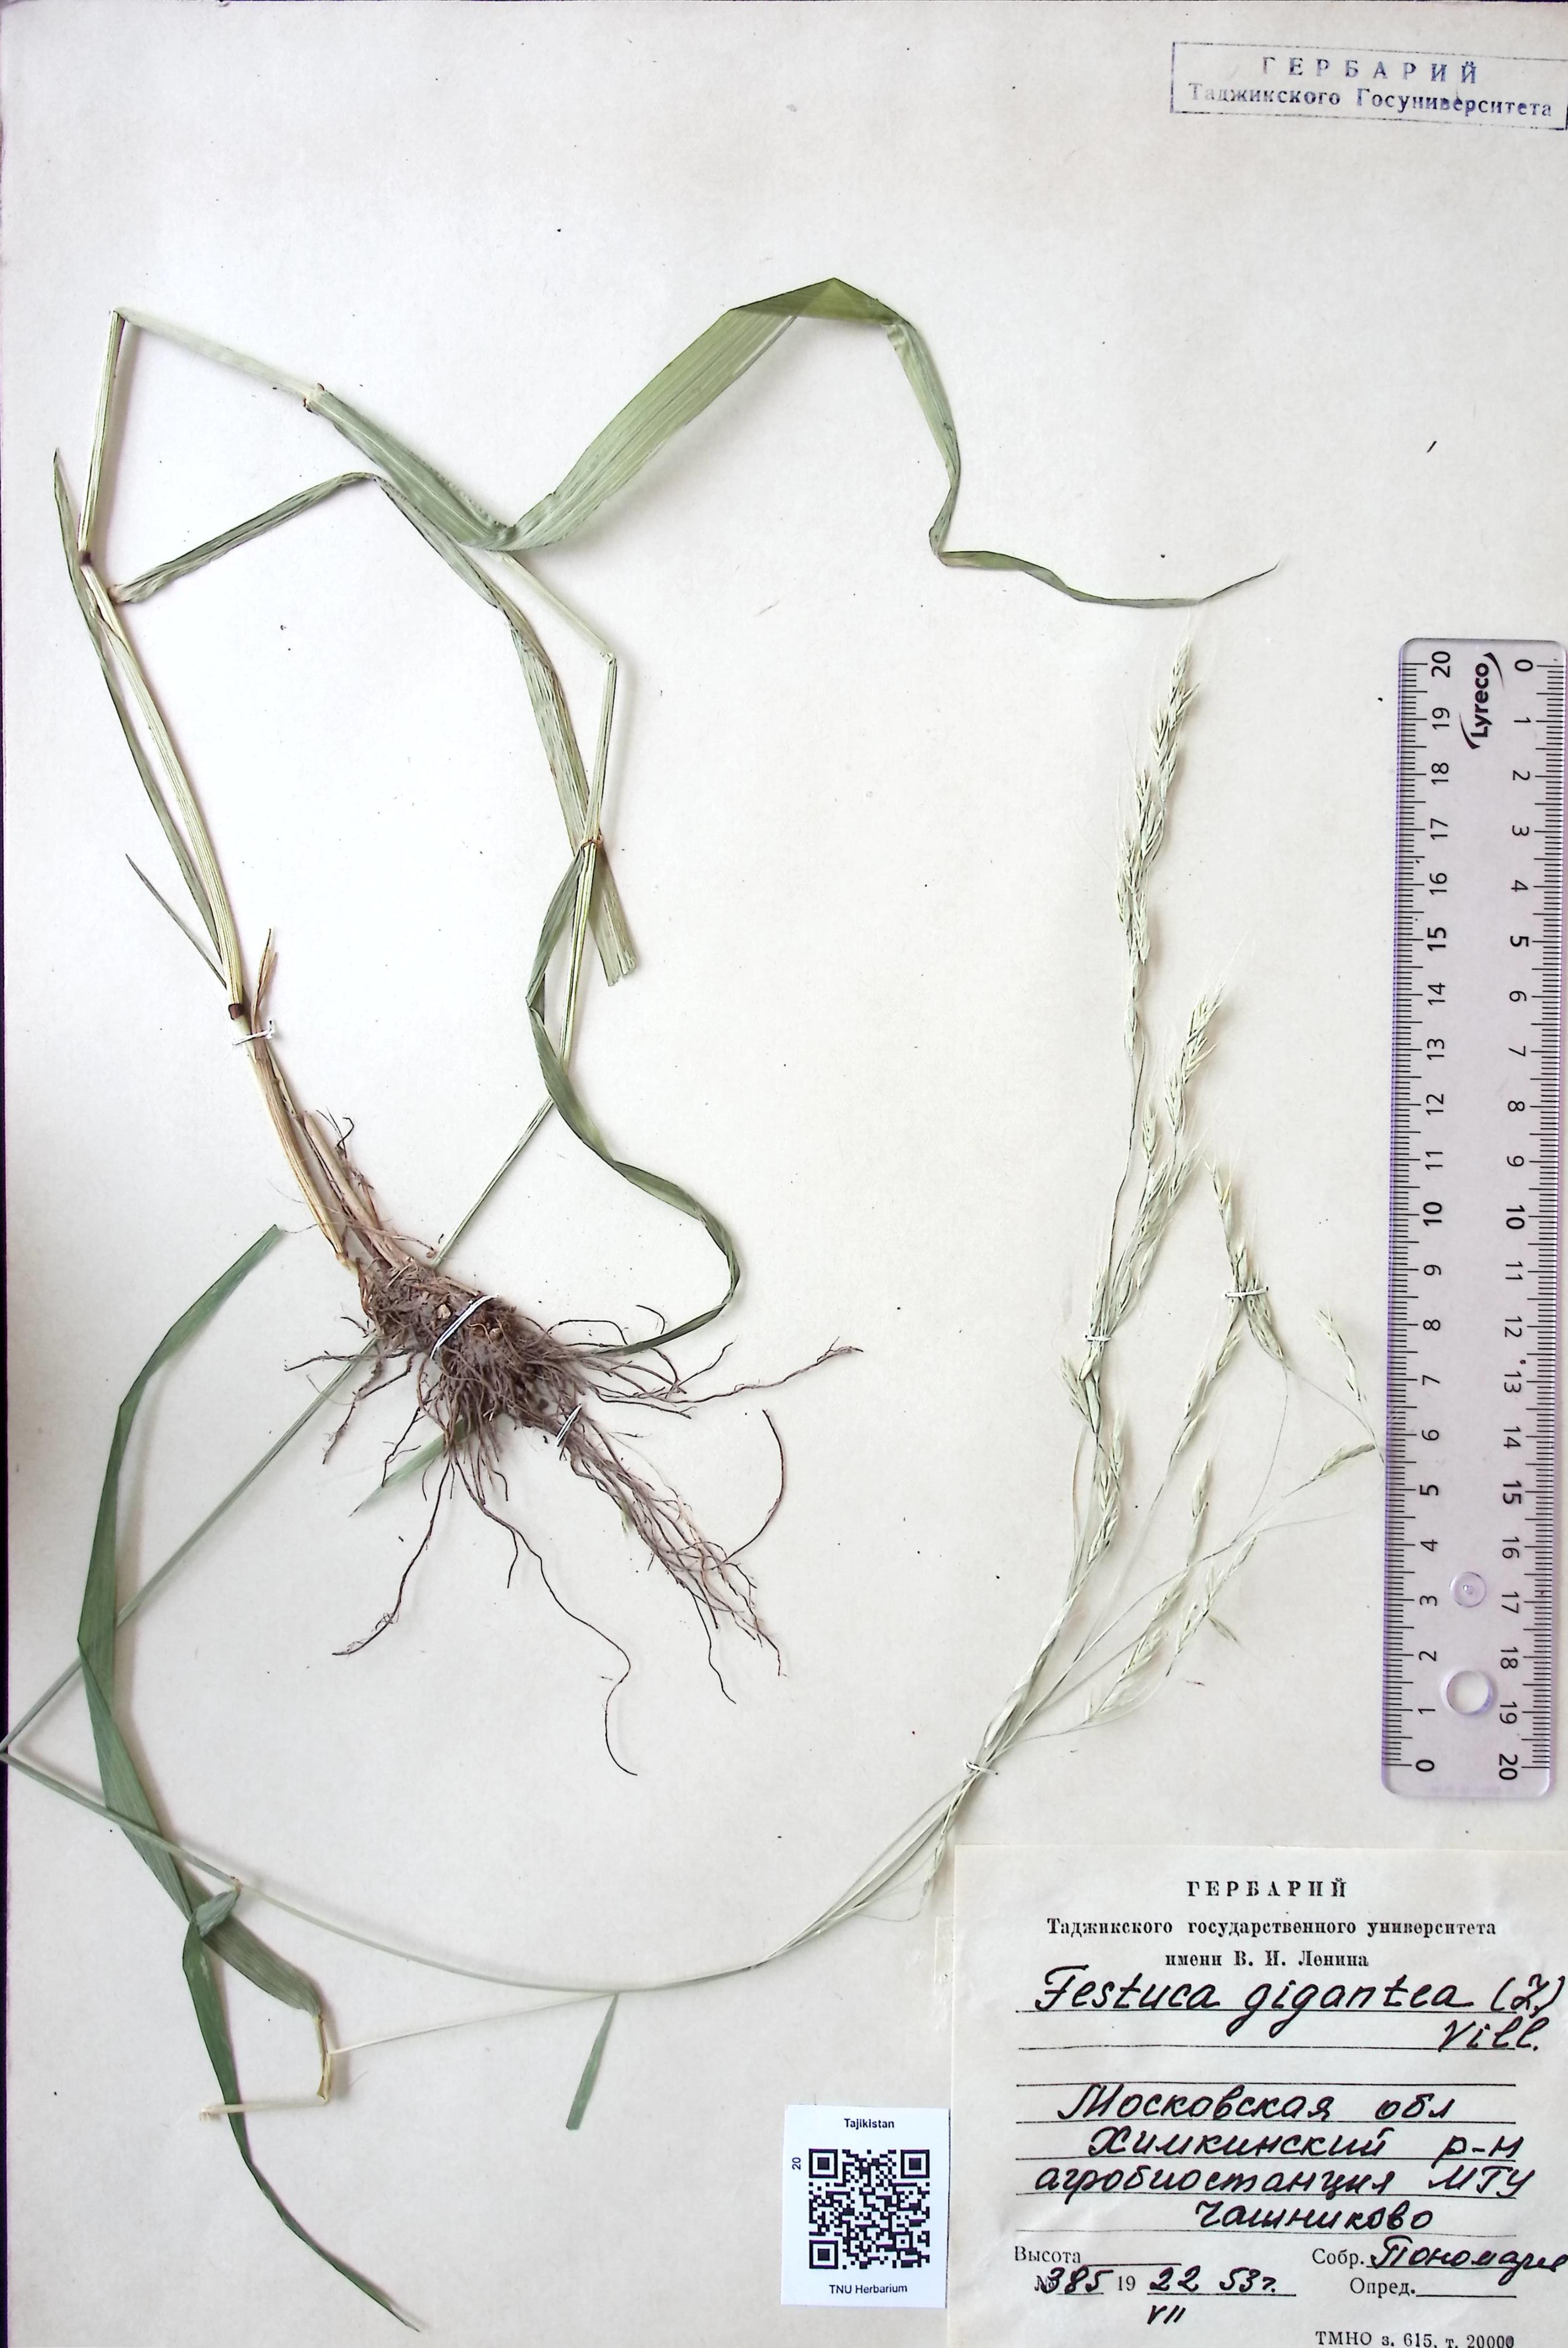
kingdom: Plantae
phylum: Tracheophyta
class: Liliopsida
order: Poales
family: Poaceae
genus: Lolium
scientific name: Lolium giganteum
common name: Giant fescue
